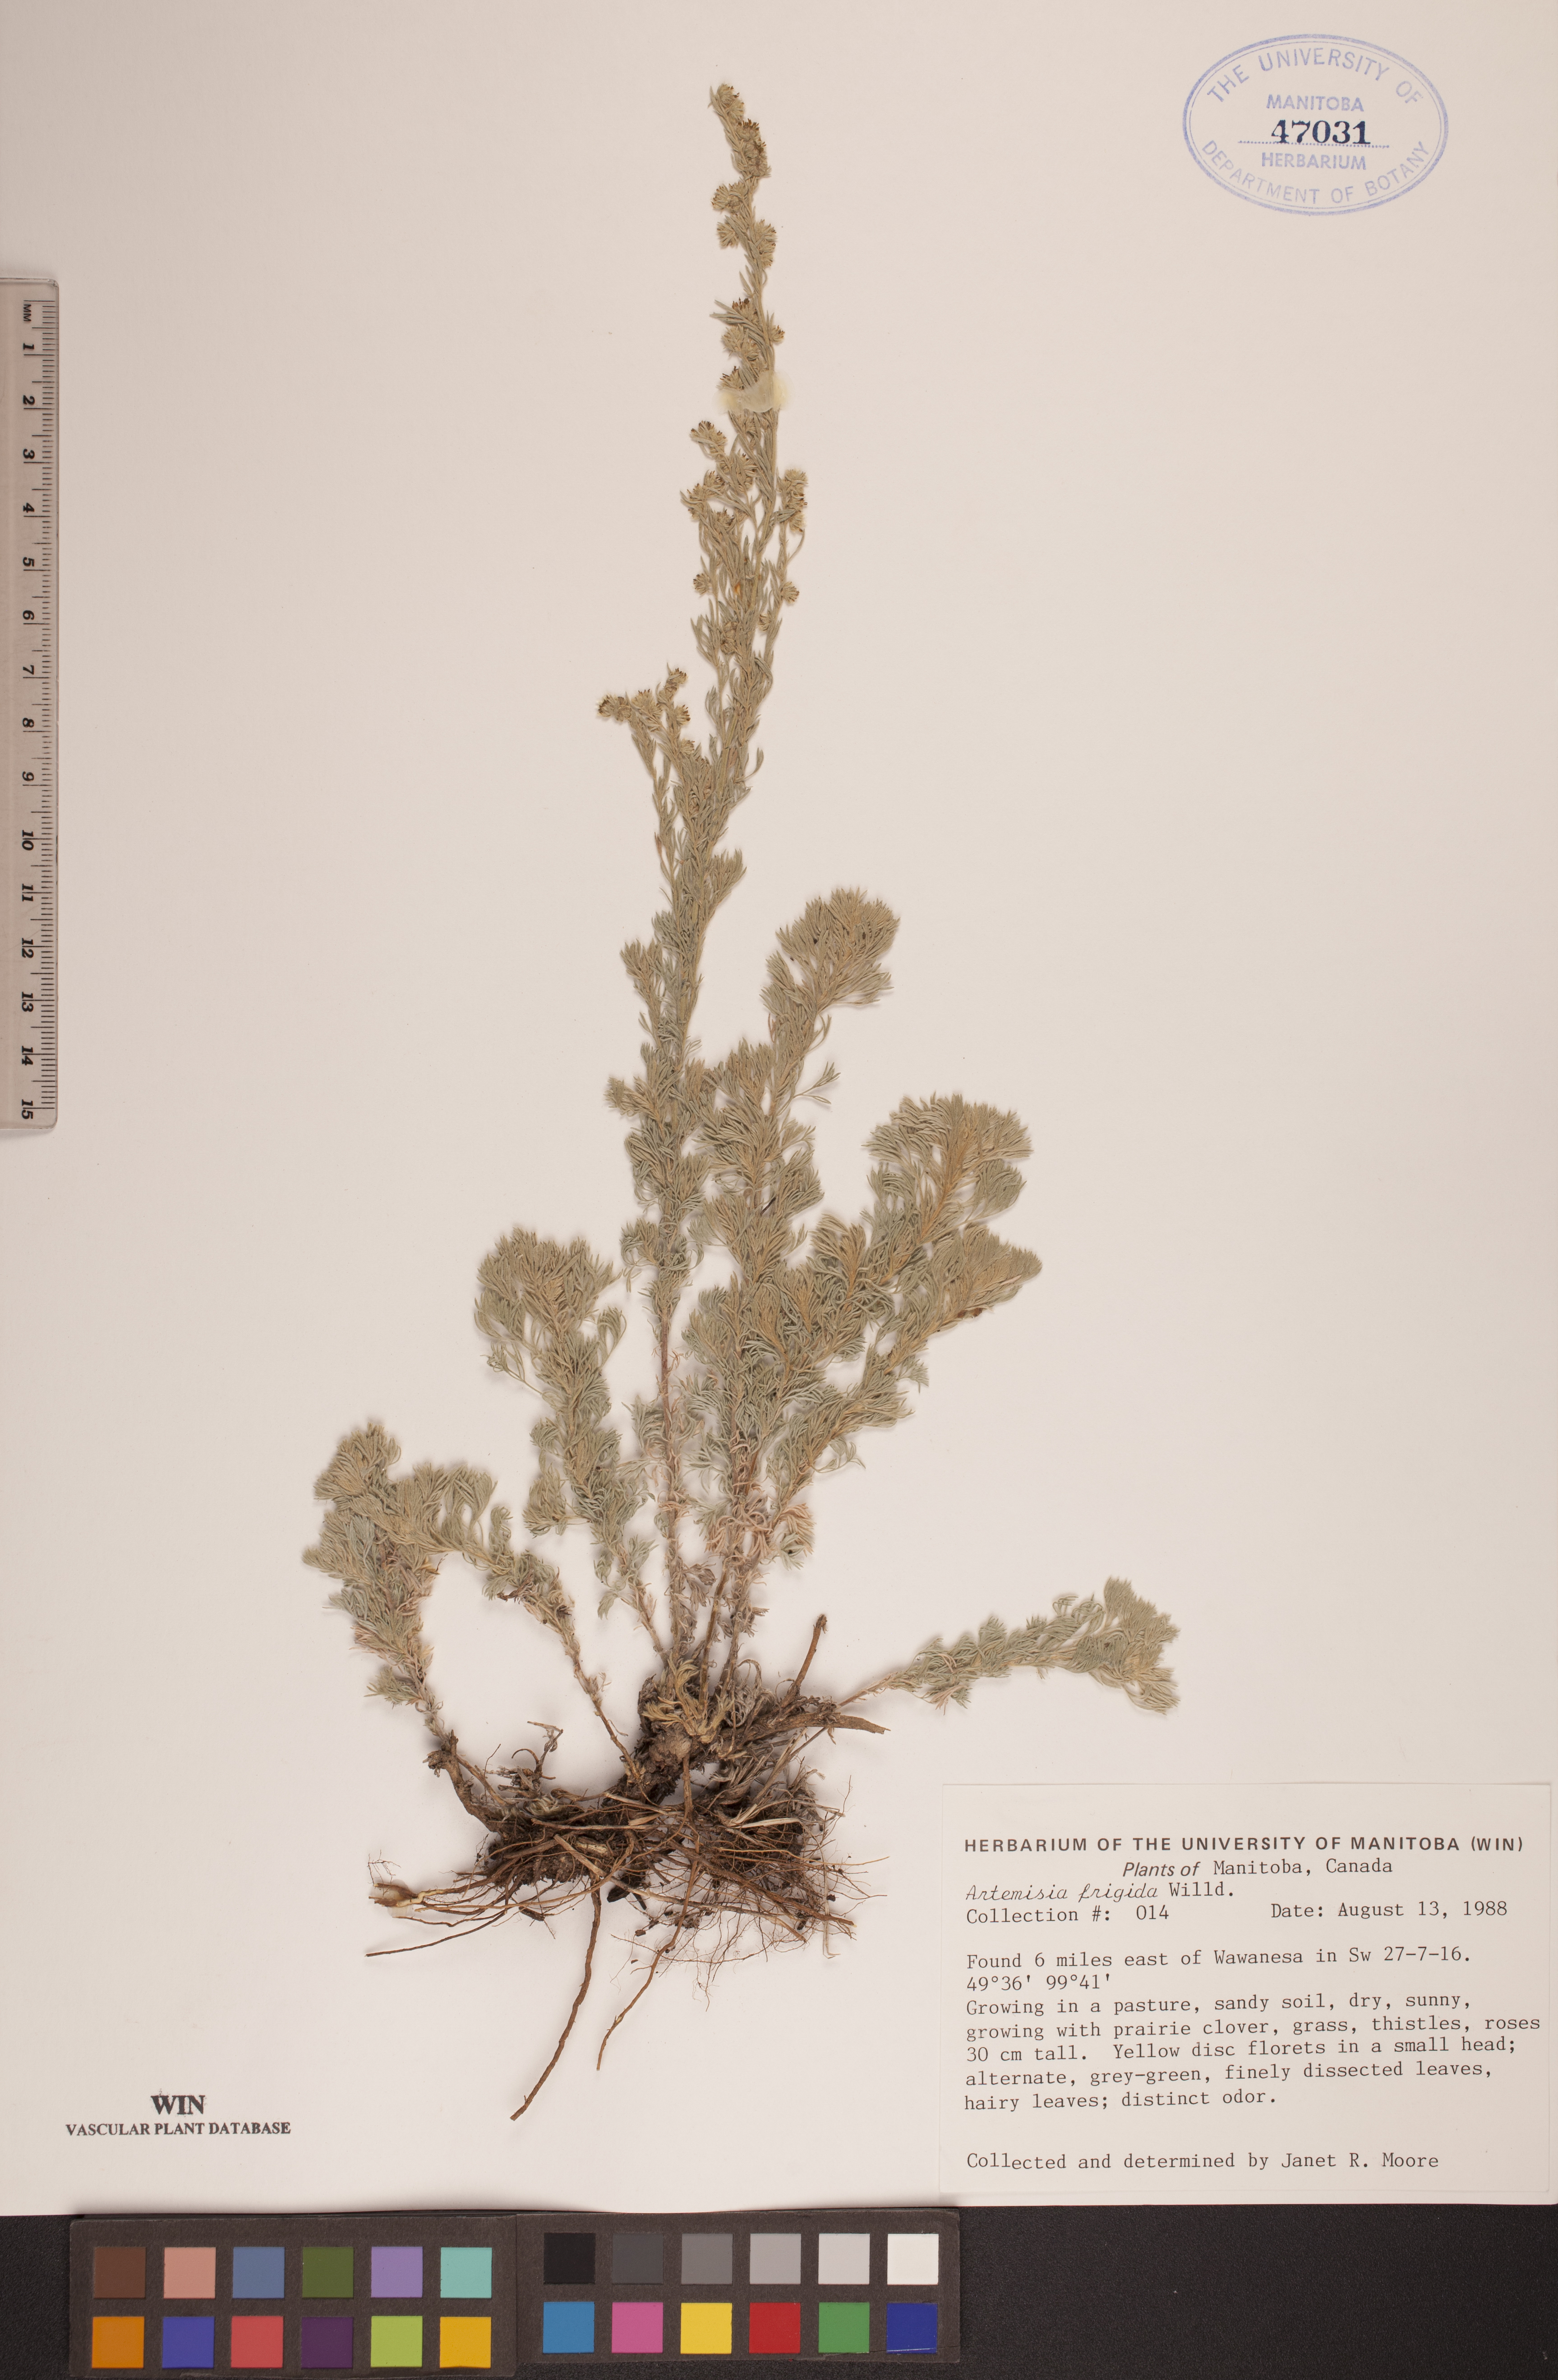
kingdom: Plantae
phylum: Tracheophyta
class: Magnoliopsida
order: Asterales
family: Asteraceae
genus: Artemisia
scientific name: Artemisia frigida
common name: Prairie sagewort
